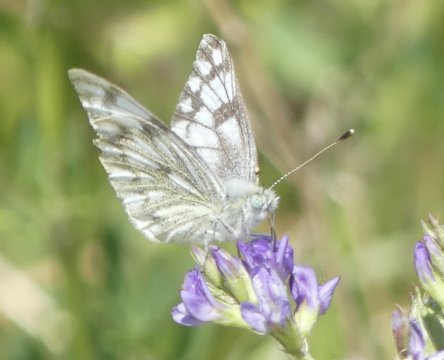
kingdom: Animalia
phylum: Arthropoda
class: Insecta
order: Lepidoptera
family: Pieridae
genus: Pontia
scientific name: Pontia occidentalis
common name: Western White
